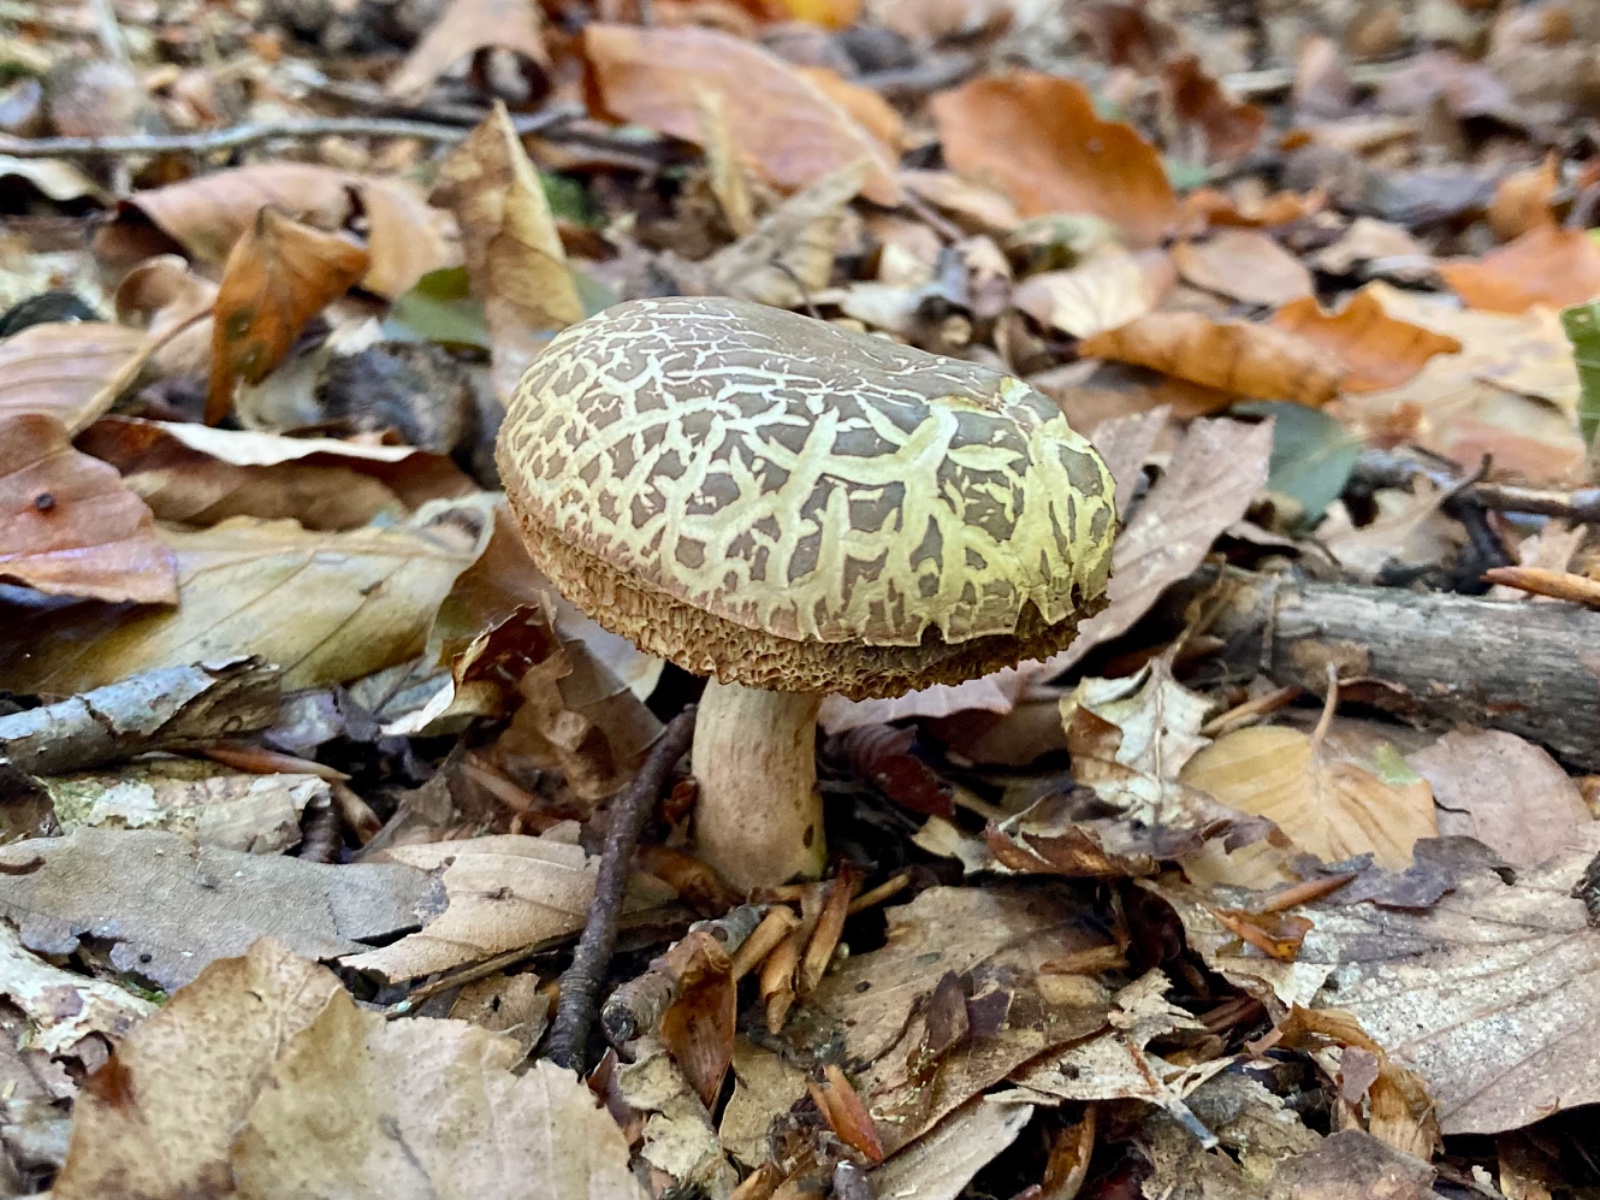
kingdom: Fungi
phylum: Basidiomycota
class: Agaricomycetes
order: Boletales
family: Boletaceae
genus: Xerocomellus
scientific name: Xerocomellus porosporus
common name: hvidsprukken rørhat
